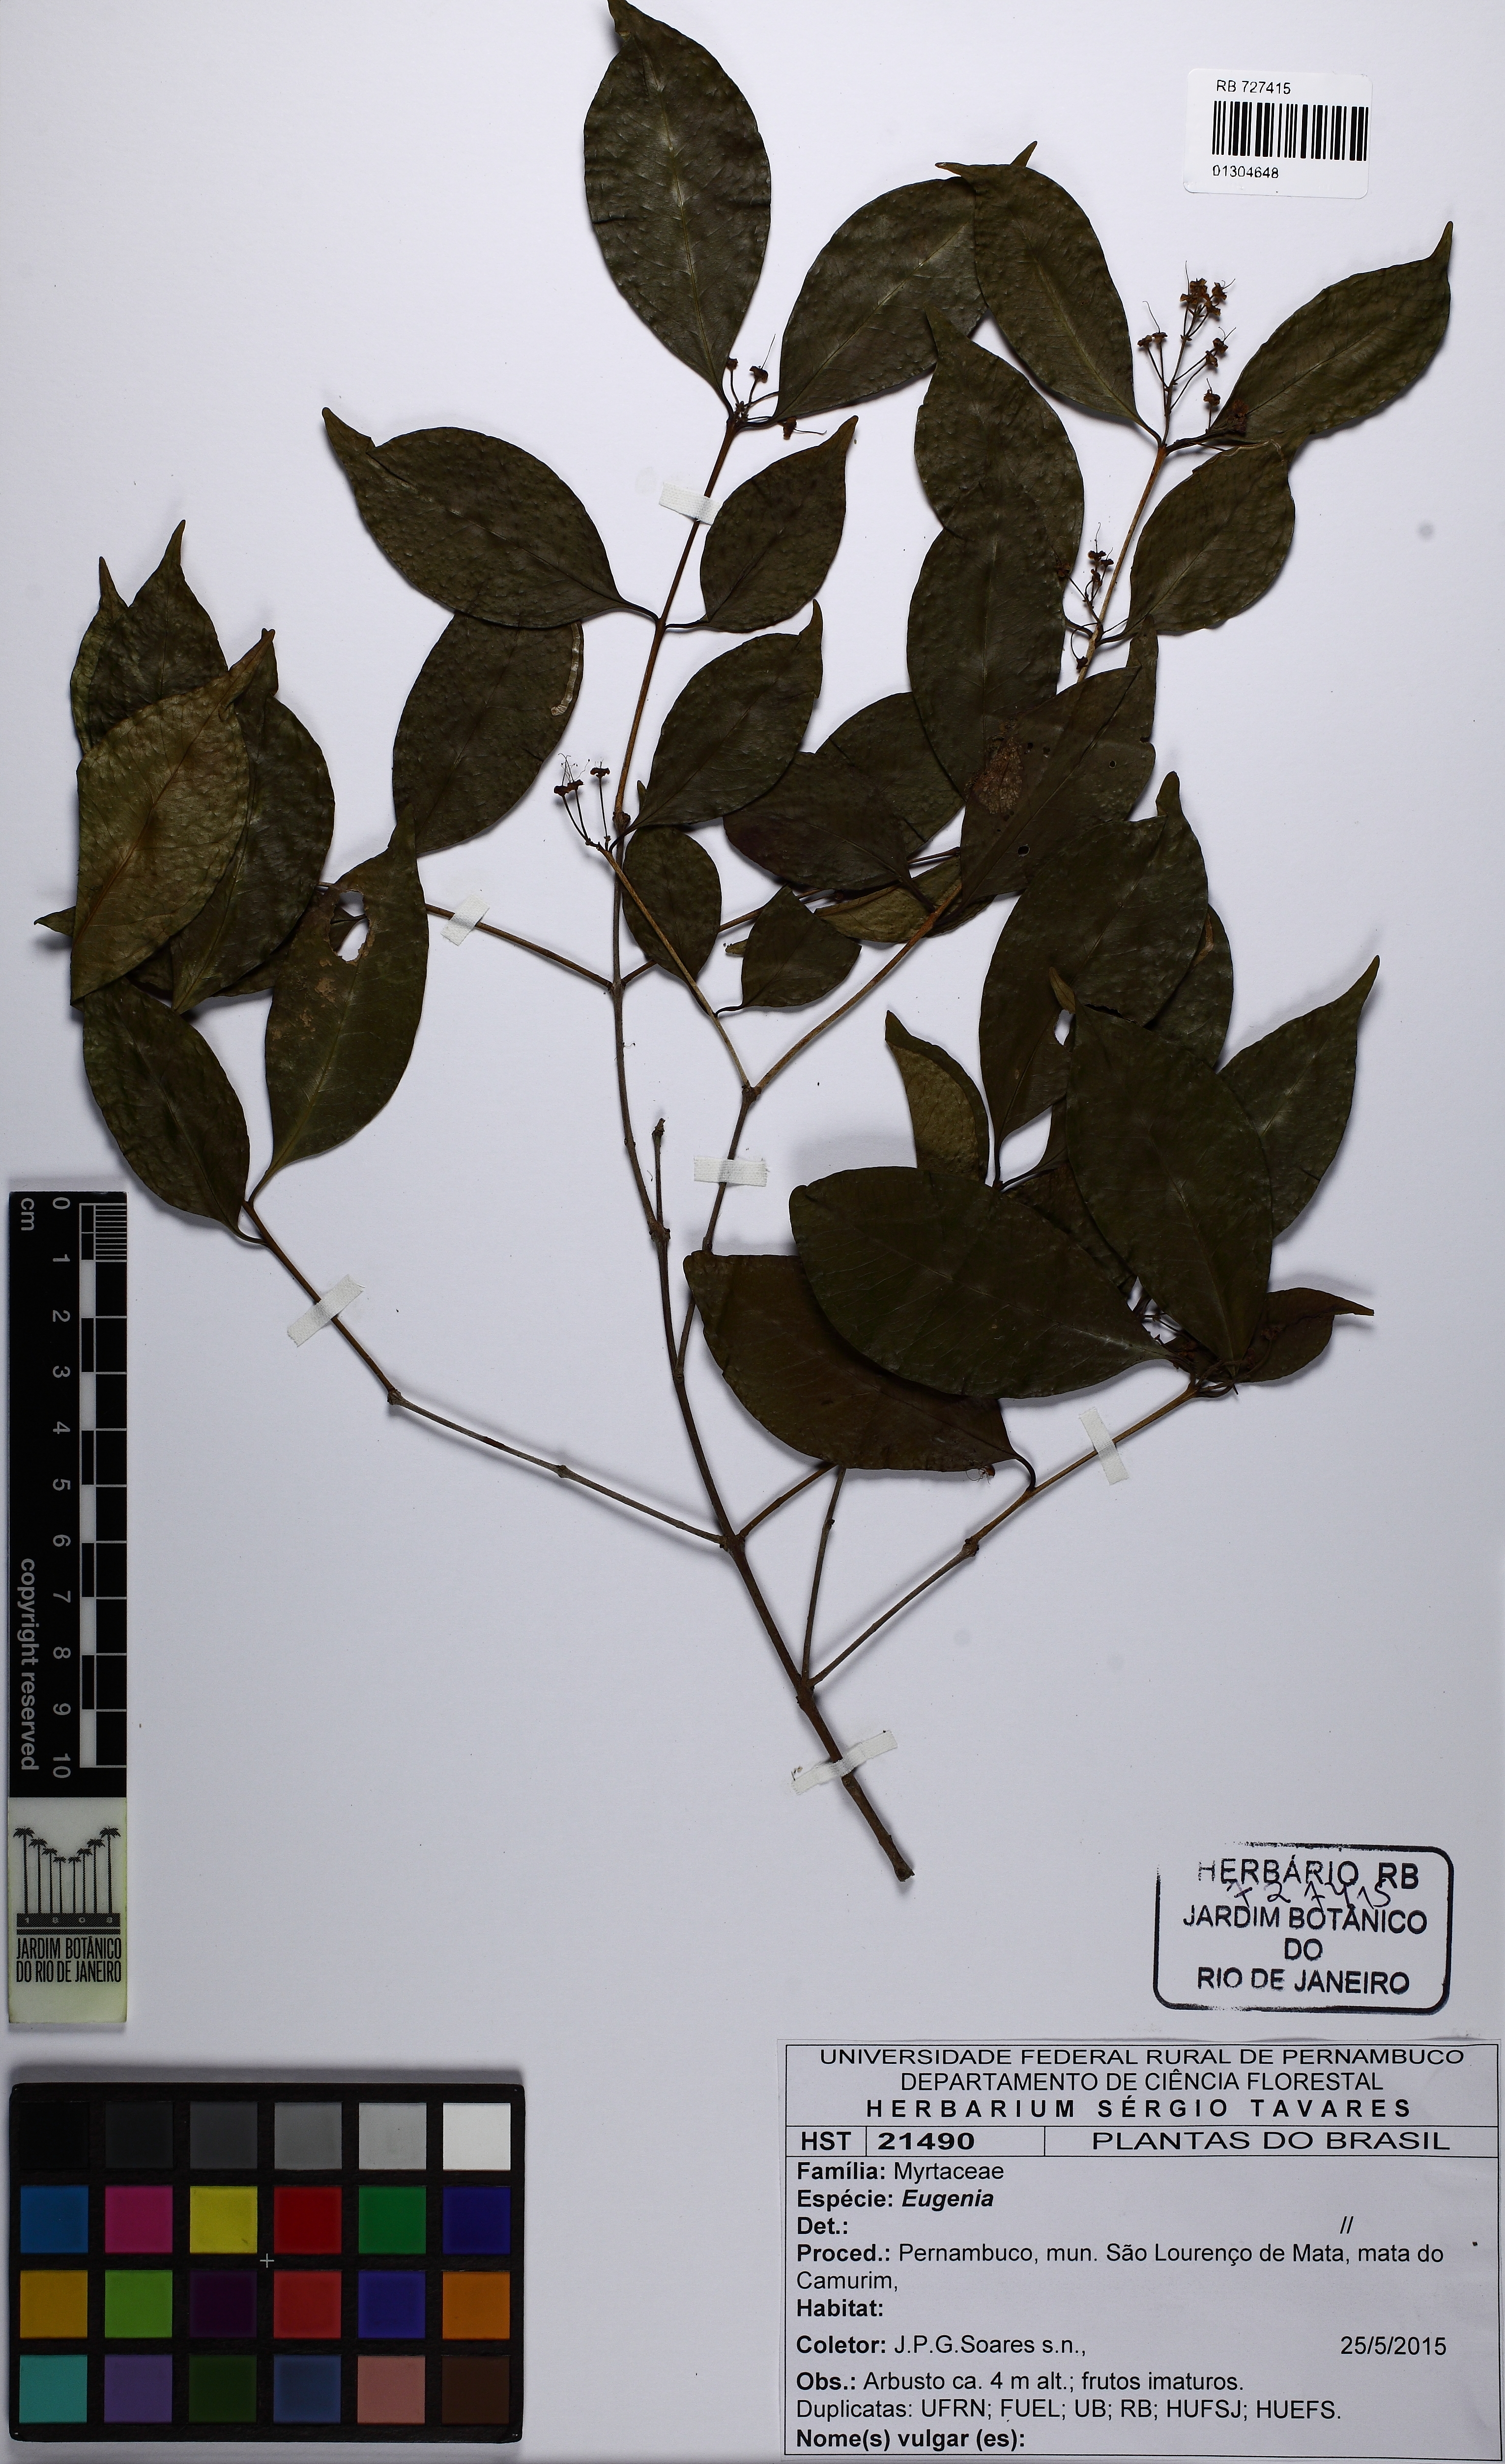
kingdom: Plantae
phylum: Tracheophyta
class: Magnoliopsida
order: Myrtales
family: Myrtaceae
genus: Eugenia
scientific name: Eugenia candolleana
